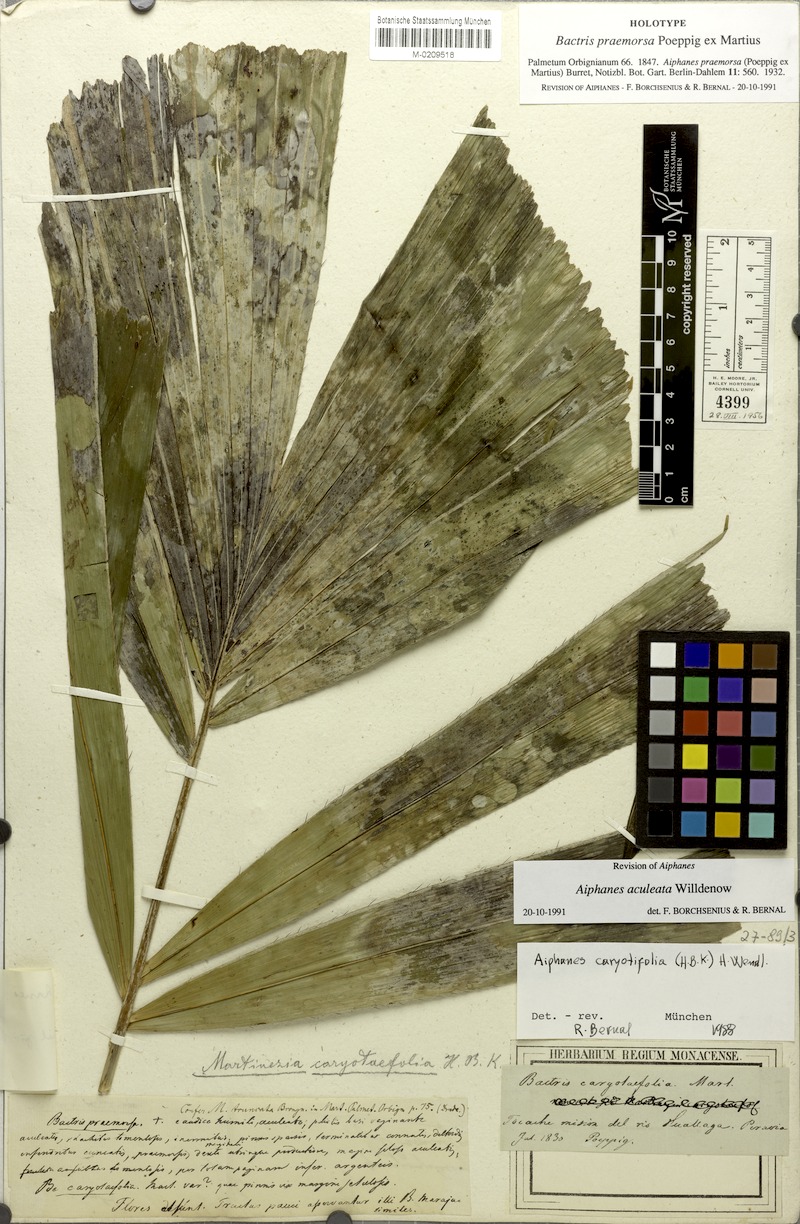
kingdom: Plantae
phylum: Tracheophyta
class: Liliopsida
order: Arecales
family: Arecaceae
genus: Aiphanes
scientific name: Aiphanes horrida
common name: Ruffle palm
